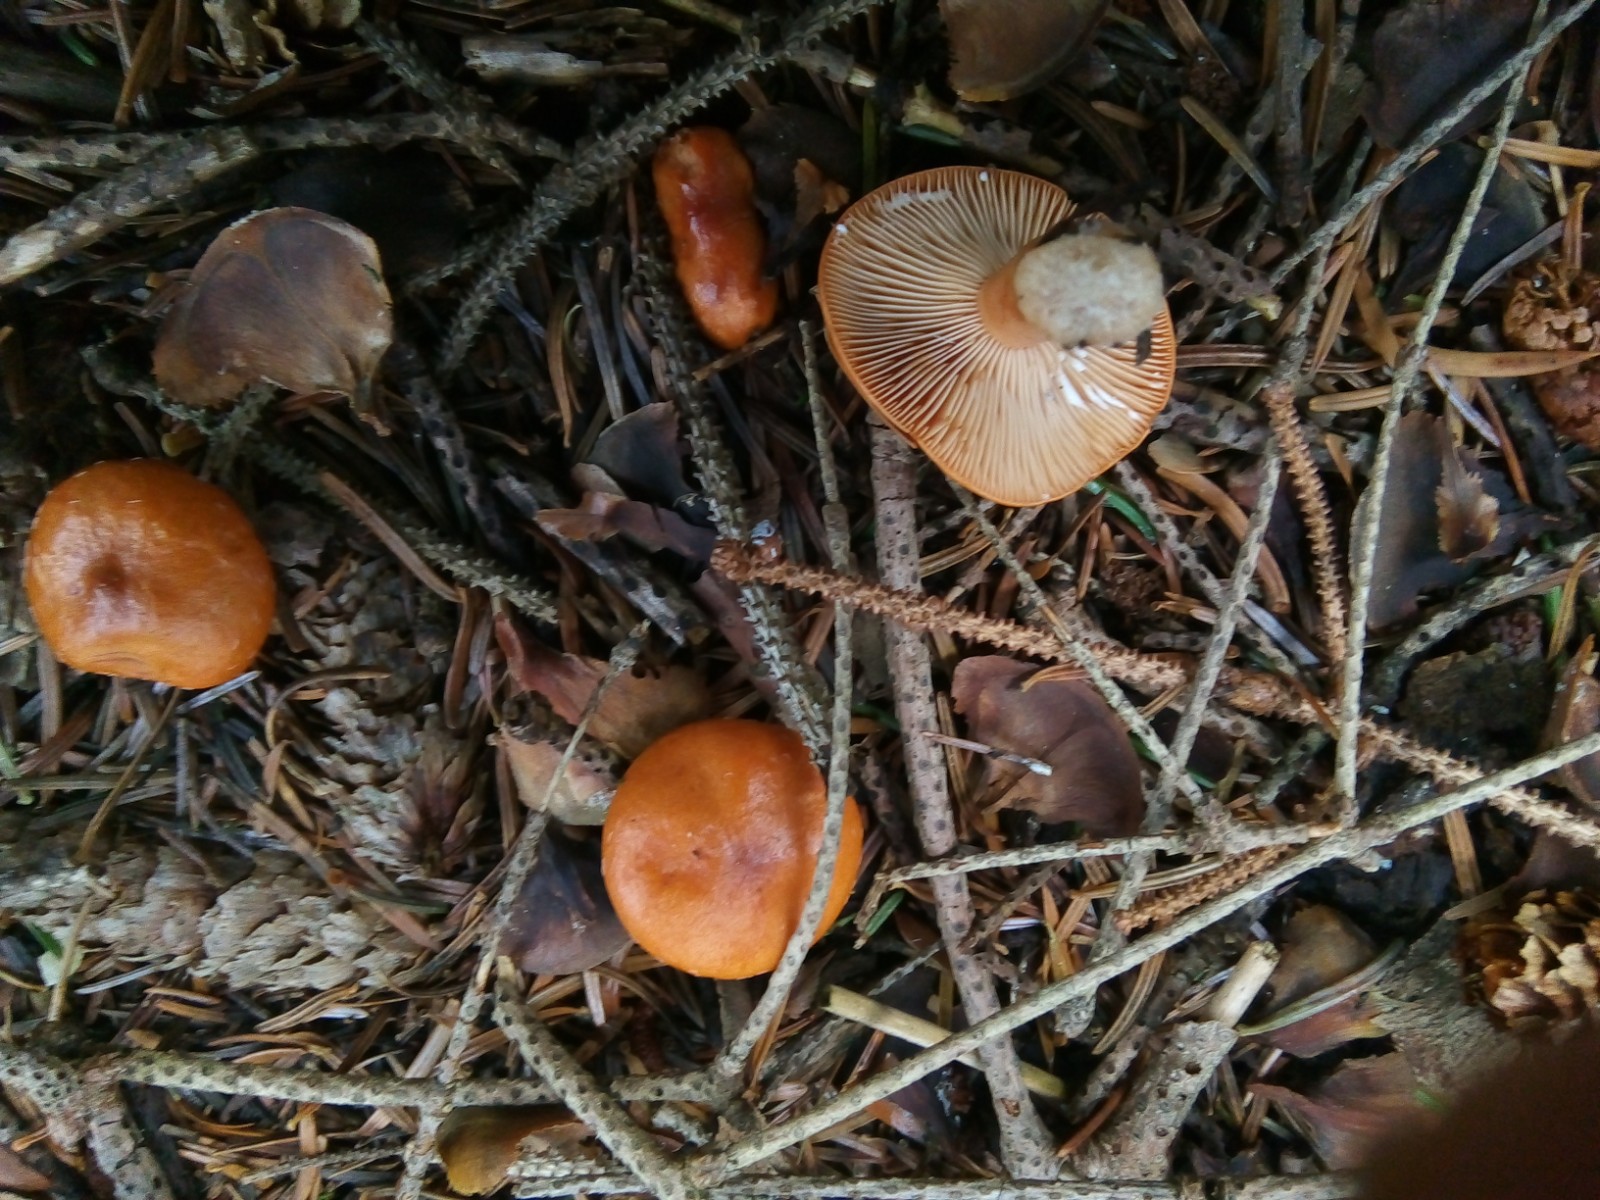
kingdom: Fungi
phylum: Basidiomycota
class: Agaricomycetes
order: Russulales
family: Russulaceae
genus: Lactarius
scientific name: Lactarius aurantiacus
